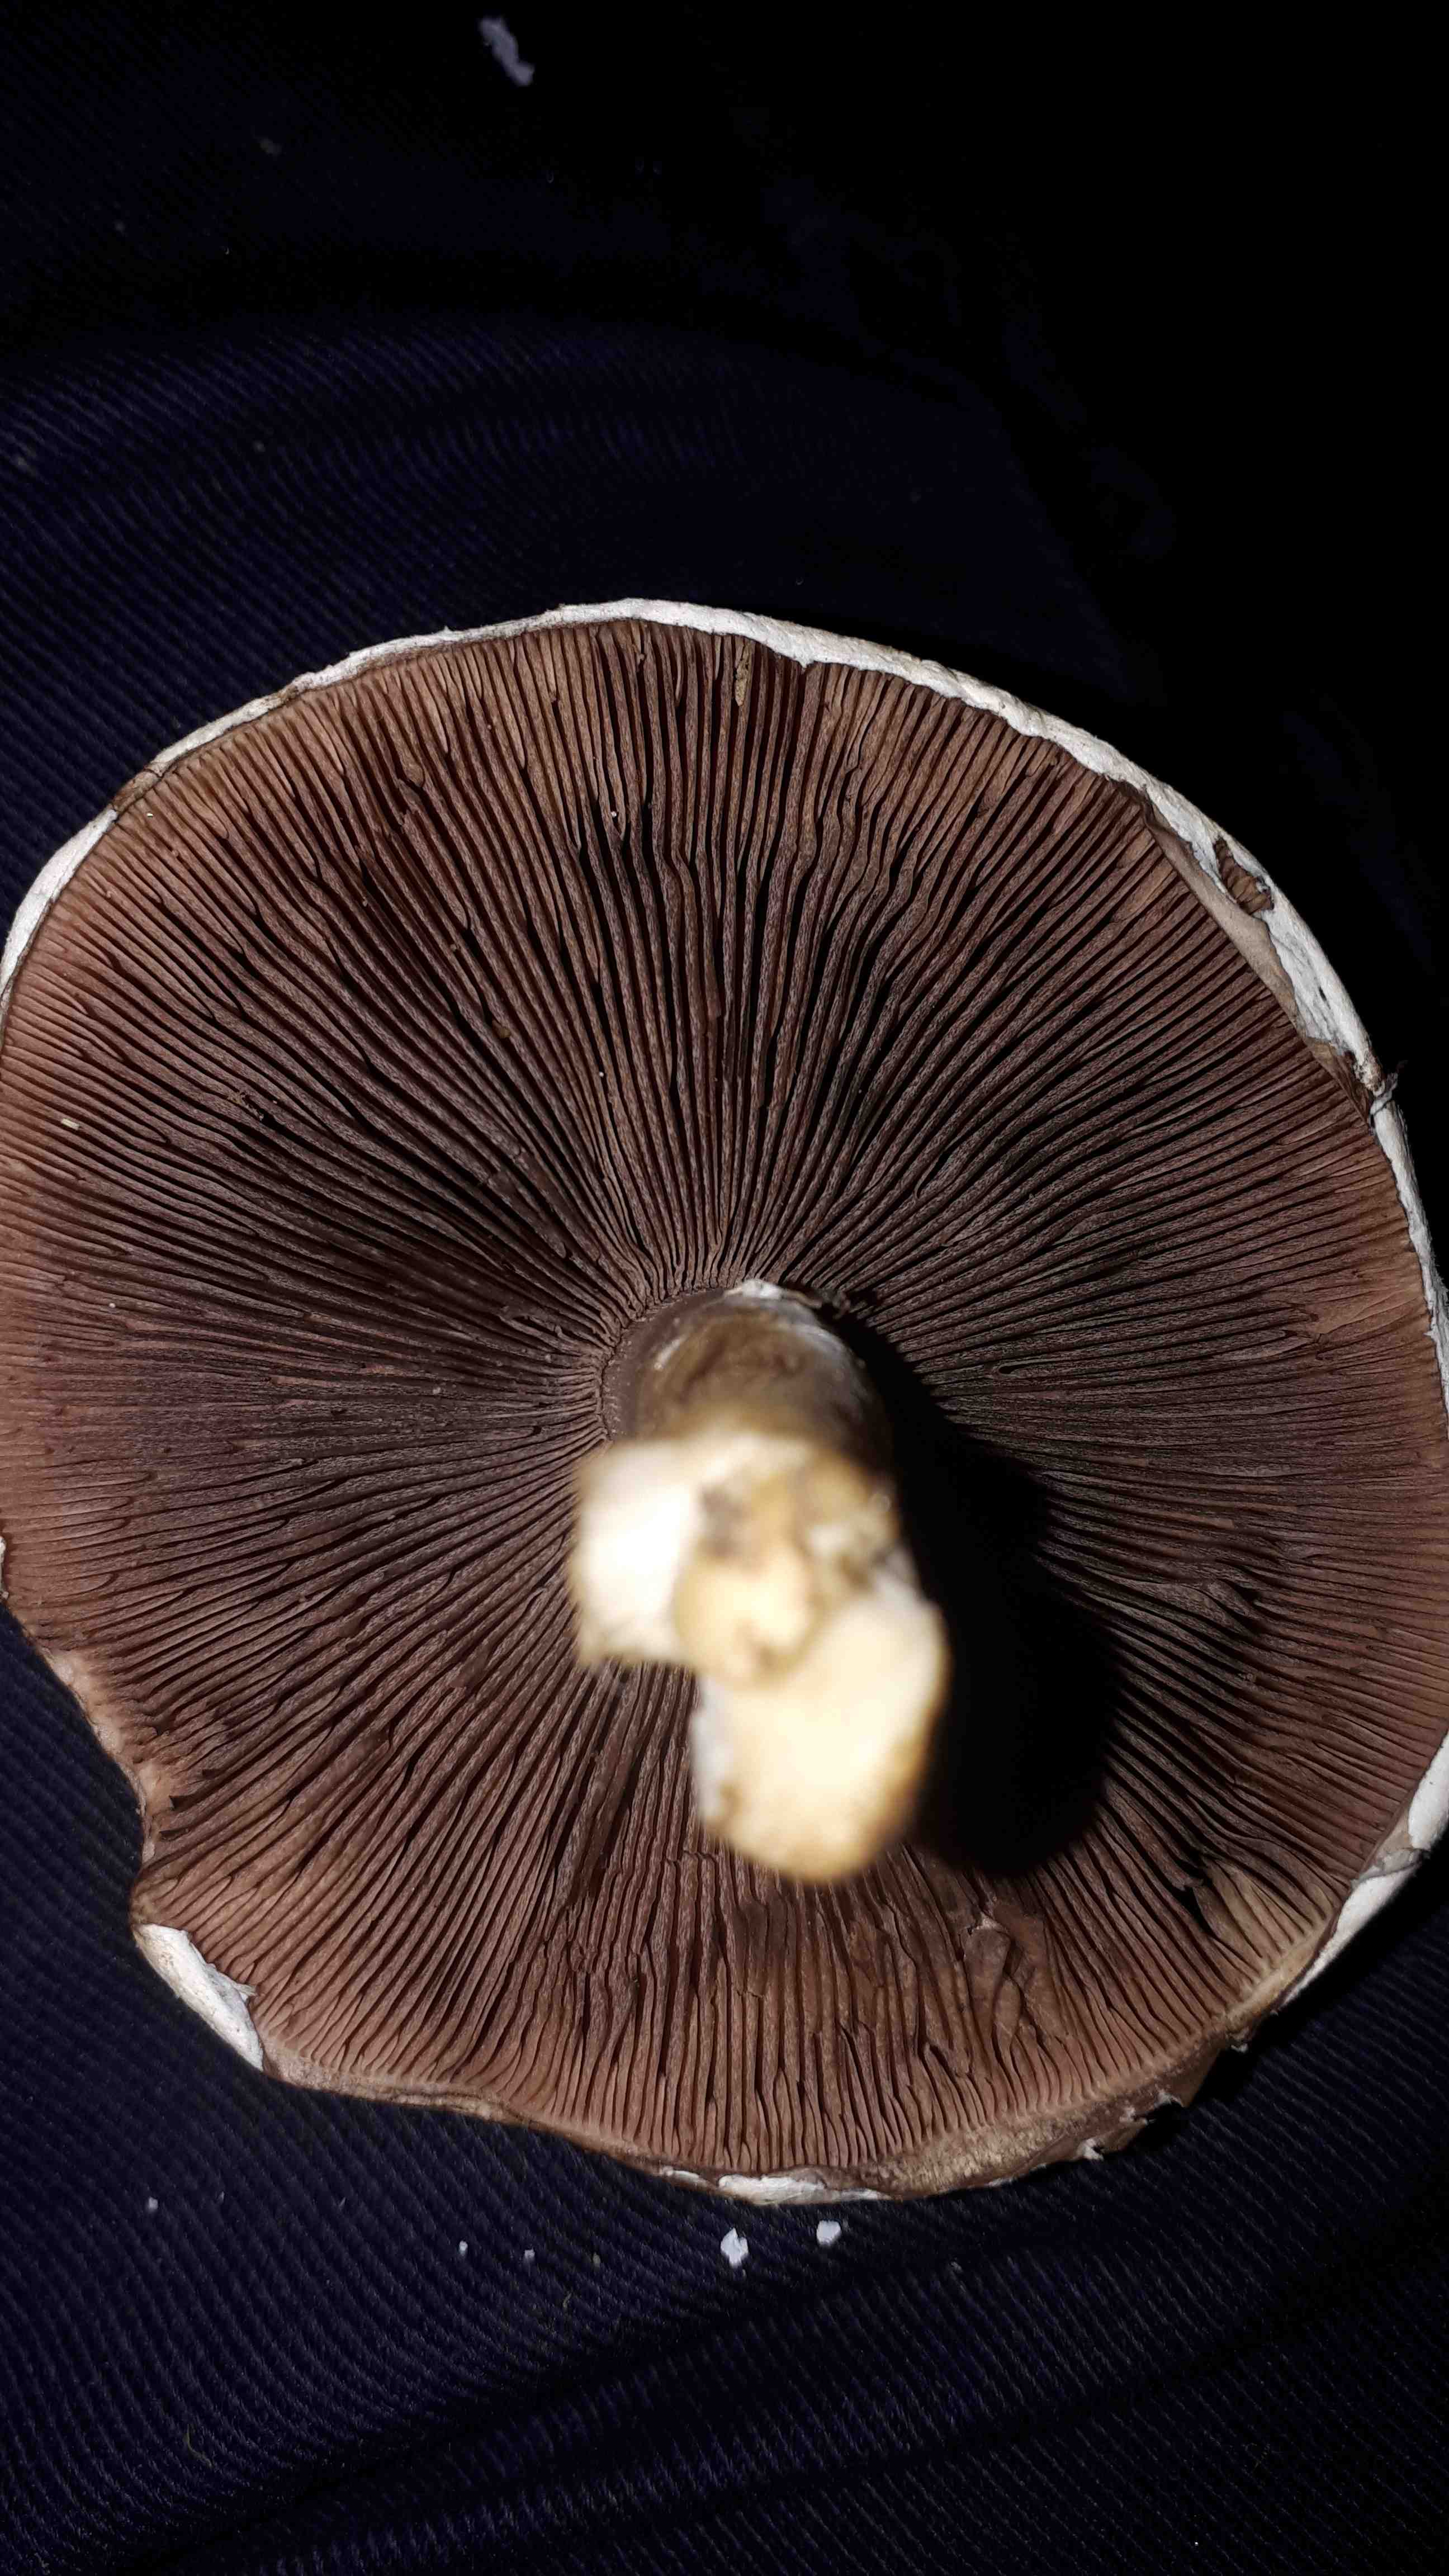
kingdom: Fungi
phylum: Basidiomycota
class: Agaricomycetes
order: Agaricales
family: Agaricaceae
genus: Agaricus
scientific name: Agaricus
